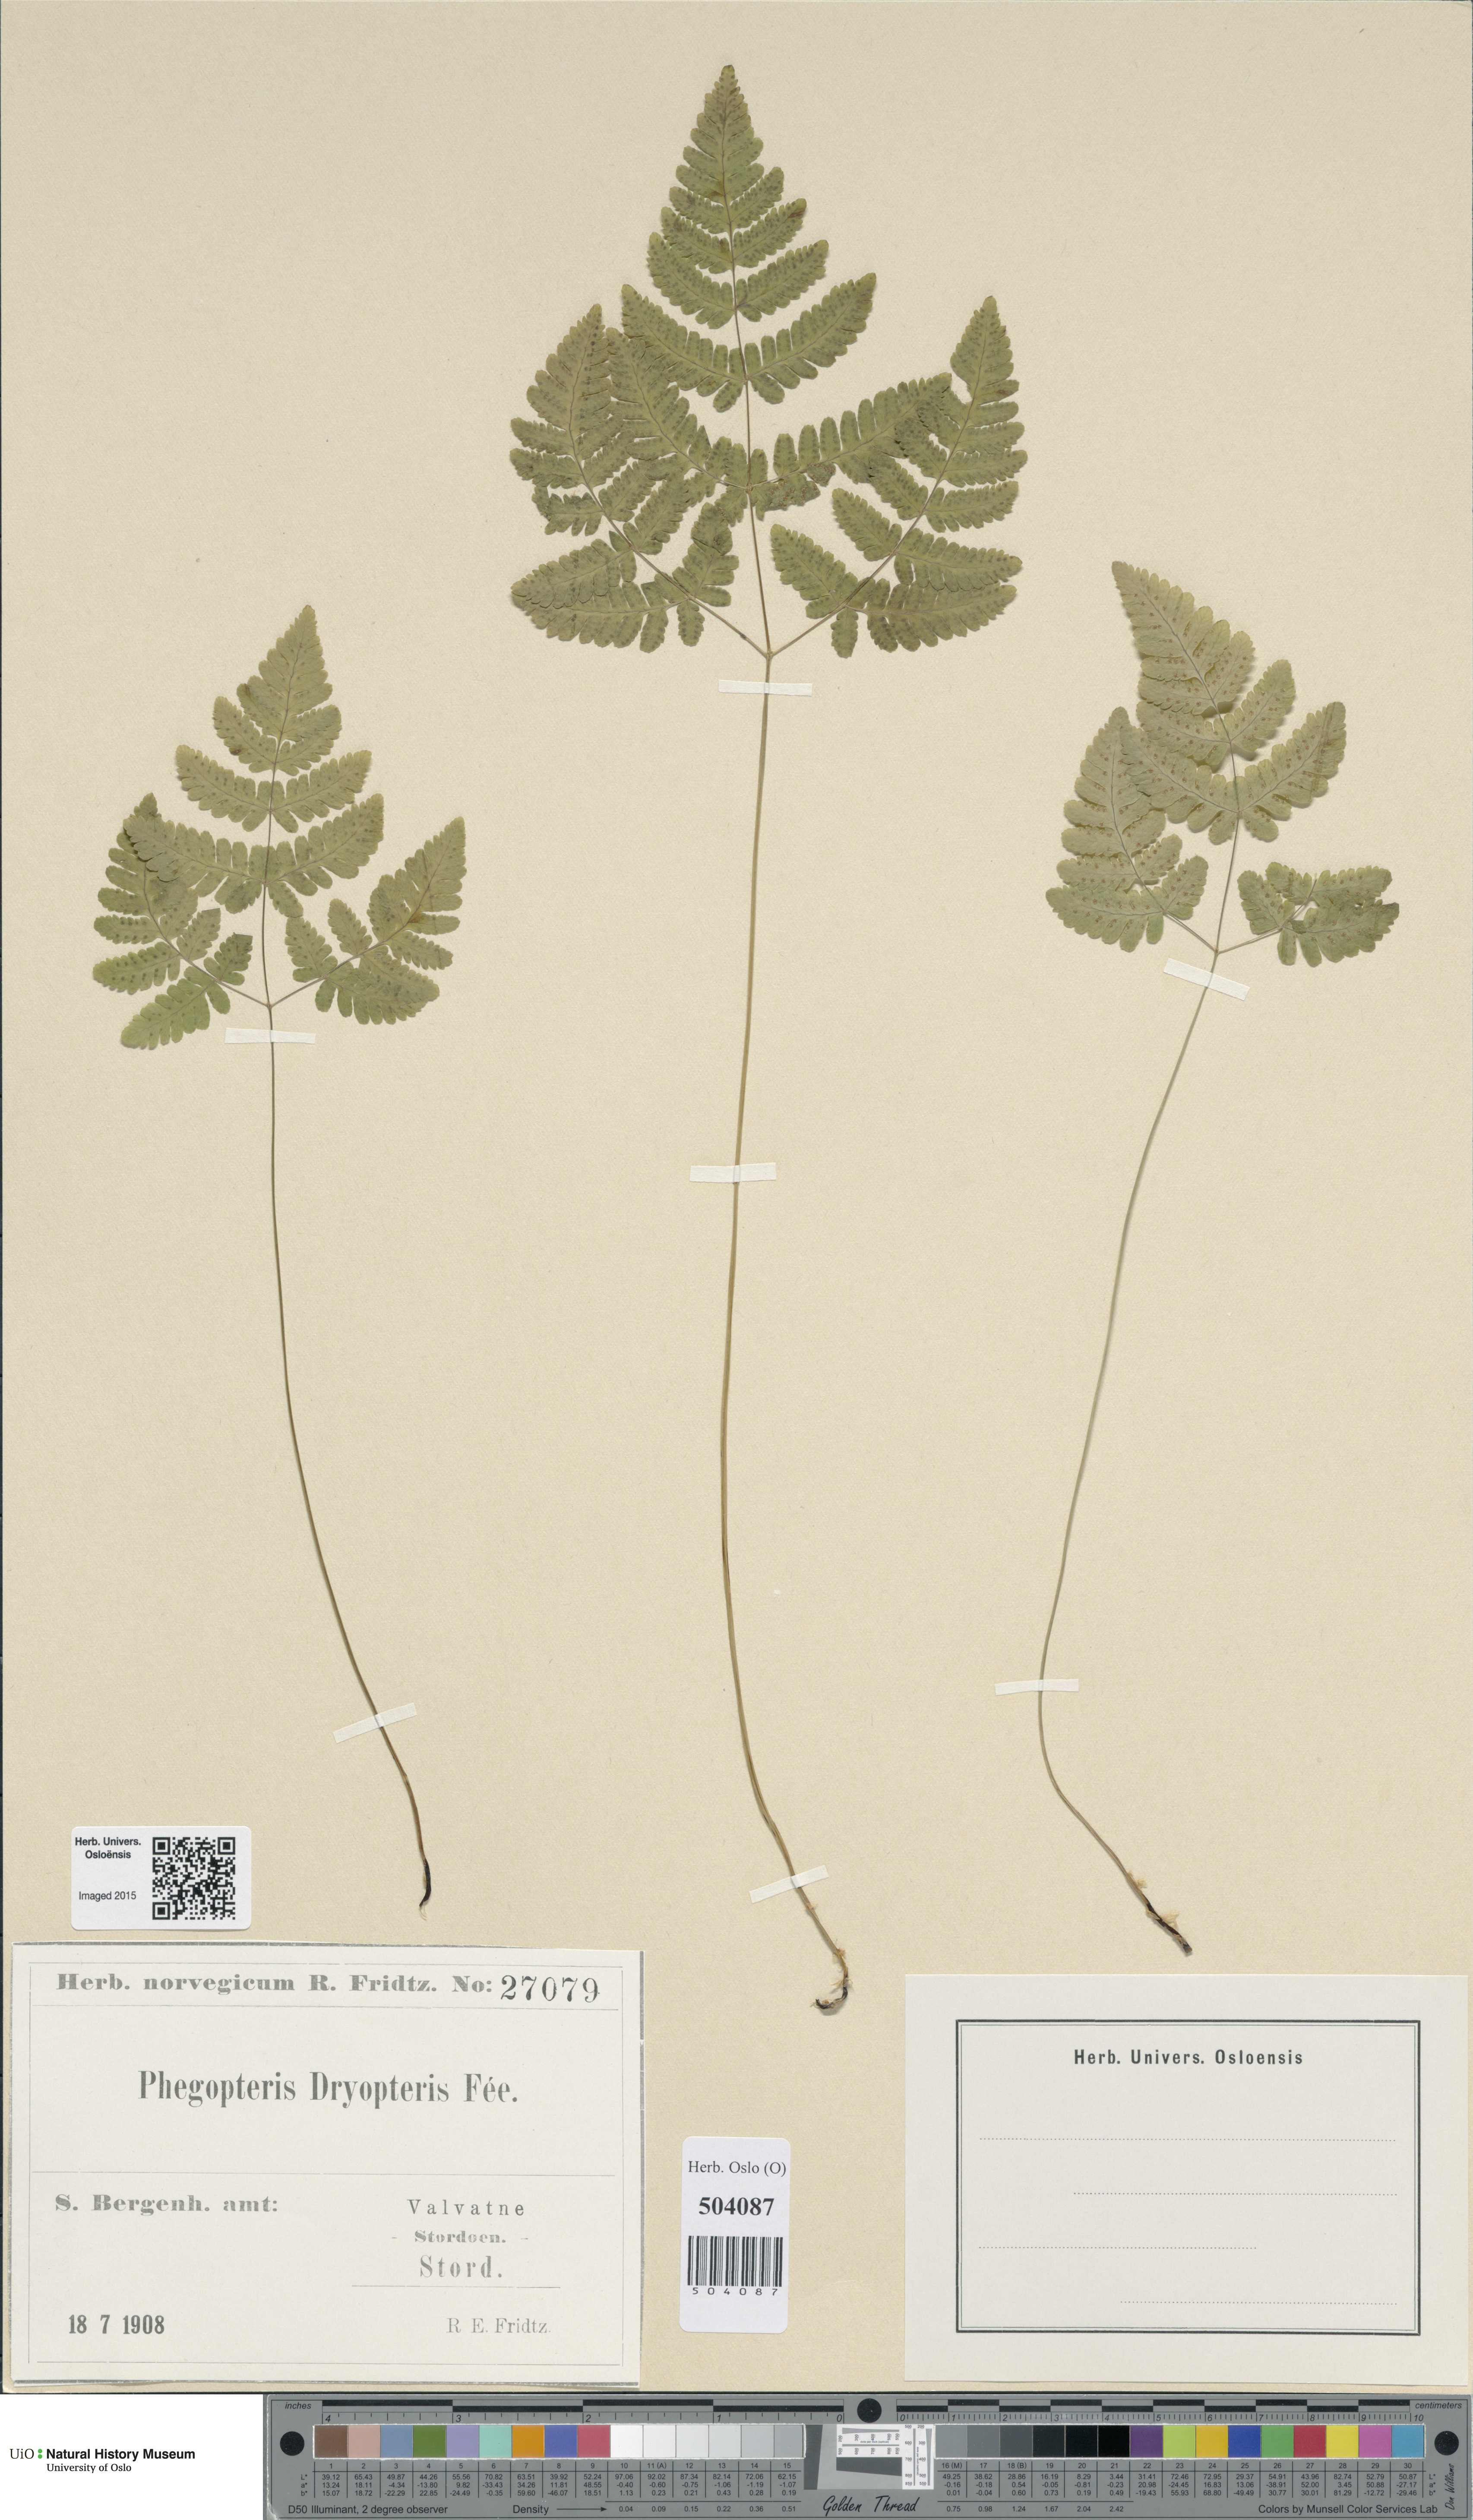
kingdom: Plantae
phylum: Tracheophyta
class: Polypodiopsida
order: Polypodiales
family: Cystopteridaceae
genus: Gymnocarpium
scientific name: Gymnocarpium dryopteris
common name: Oak fern
